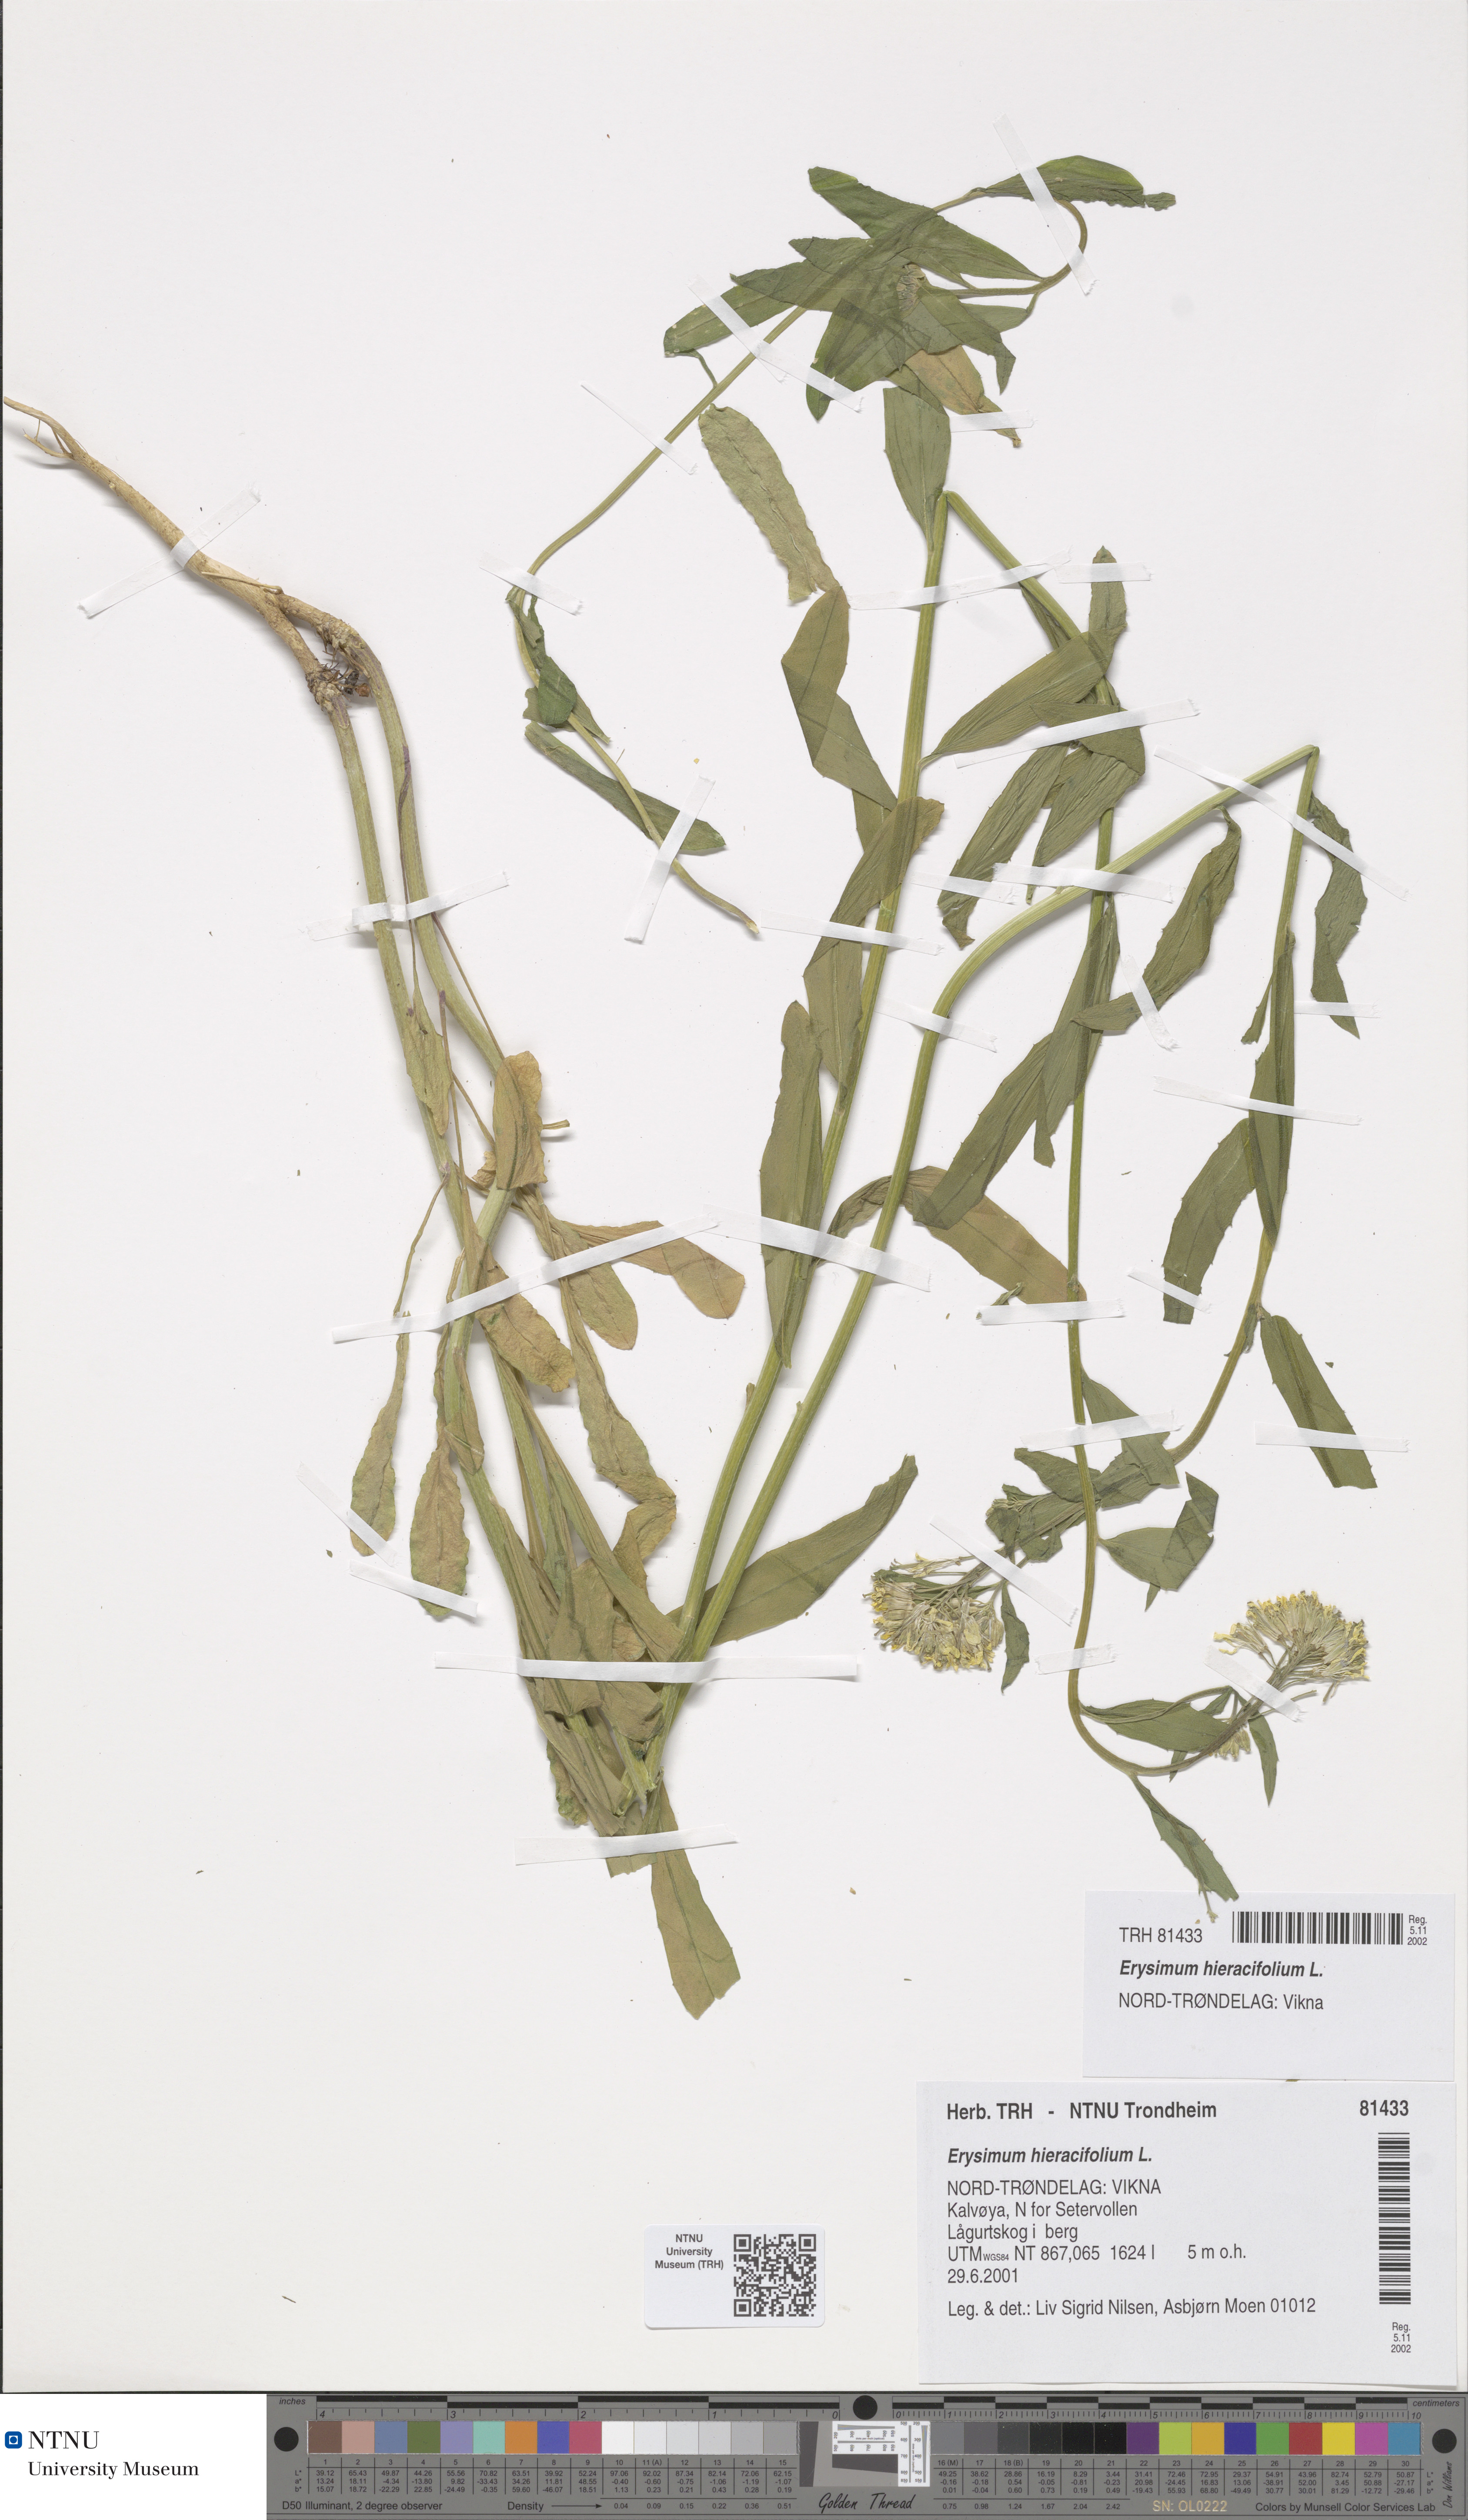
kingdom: Plantae
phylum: Tracheophyta
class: Magnoliopsida
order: Brassicales
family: Brassicaceae
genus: Erysimum
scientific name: Erysimum virgatum
